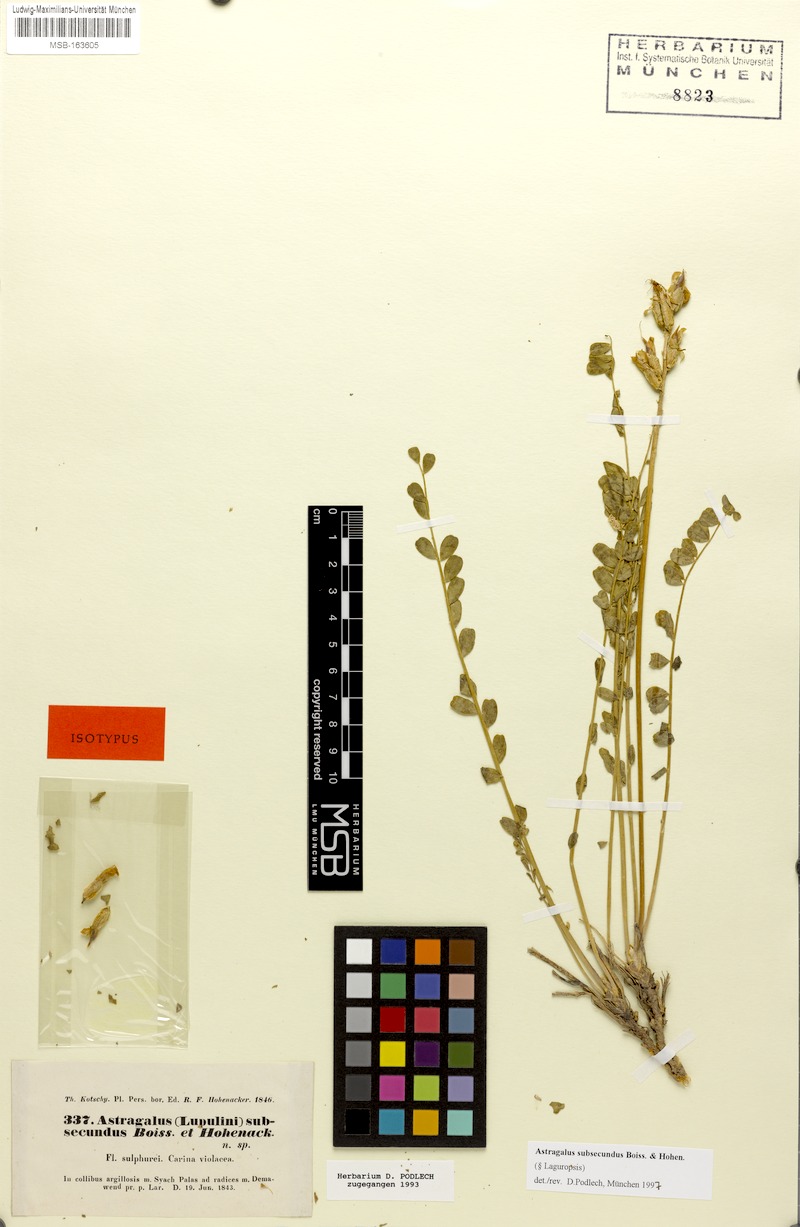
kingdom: Plantae
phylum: Tracheophyta
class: Magnoliopsida
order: Fabales
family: Fabaceae
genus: Astragalus
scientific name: Astragalus subsecundus
